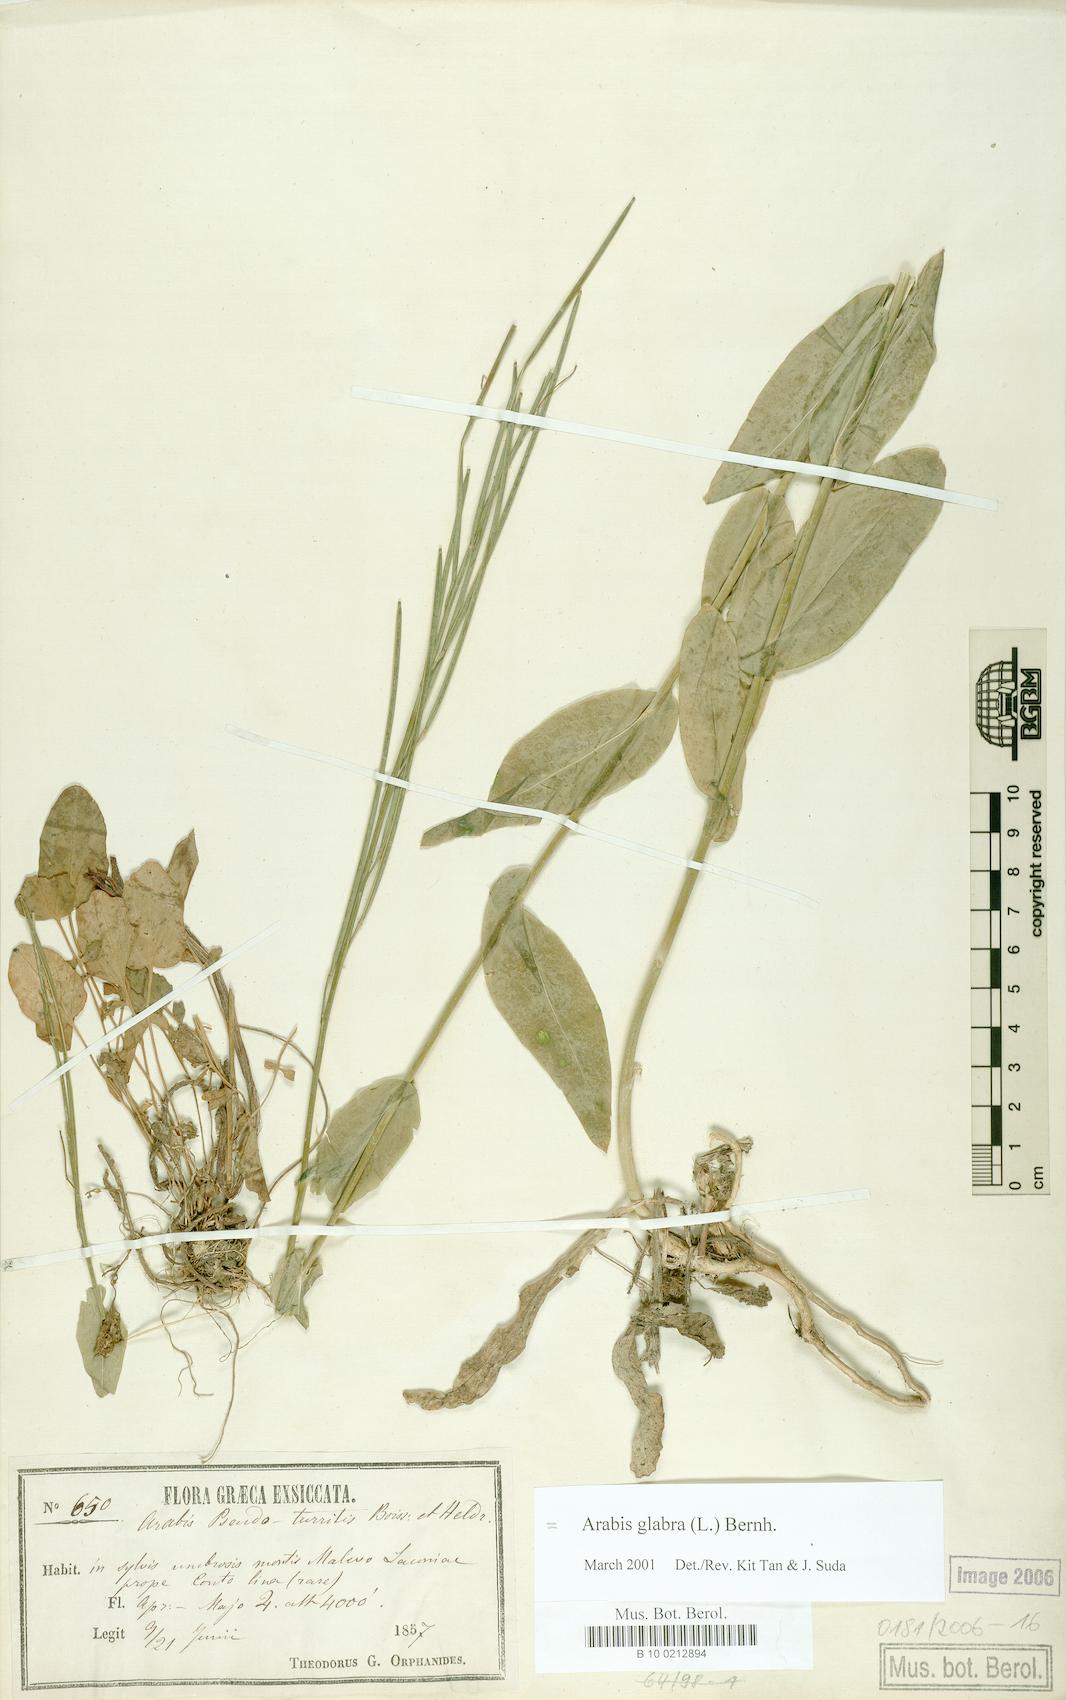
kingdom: Plantae
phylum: Tracheophyta
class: Magnoliopsida
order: Brassicales
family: Brassicaceae
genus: Turritis
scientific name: Turritis glabra
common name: Tower rockcress
